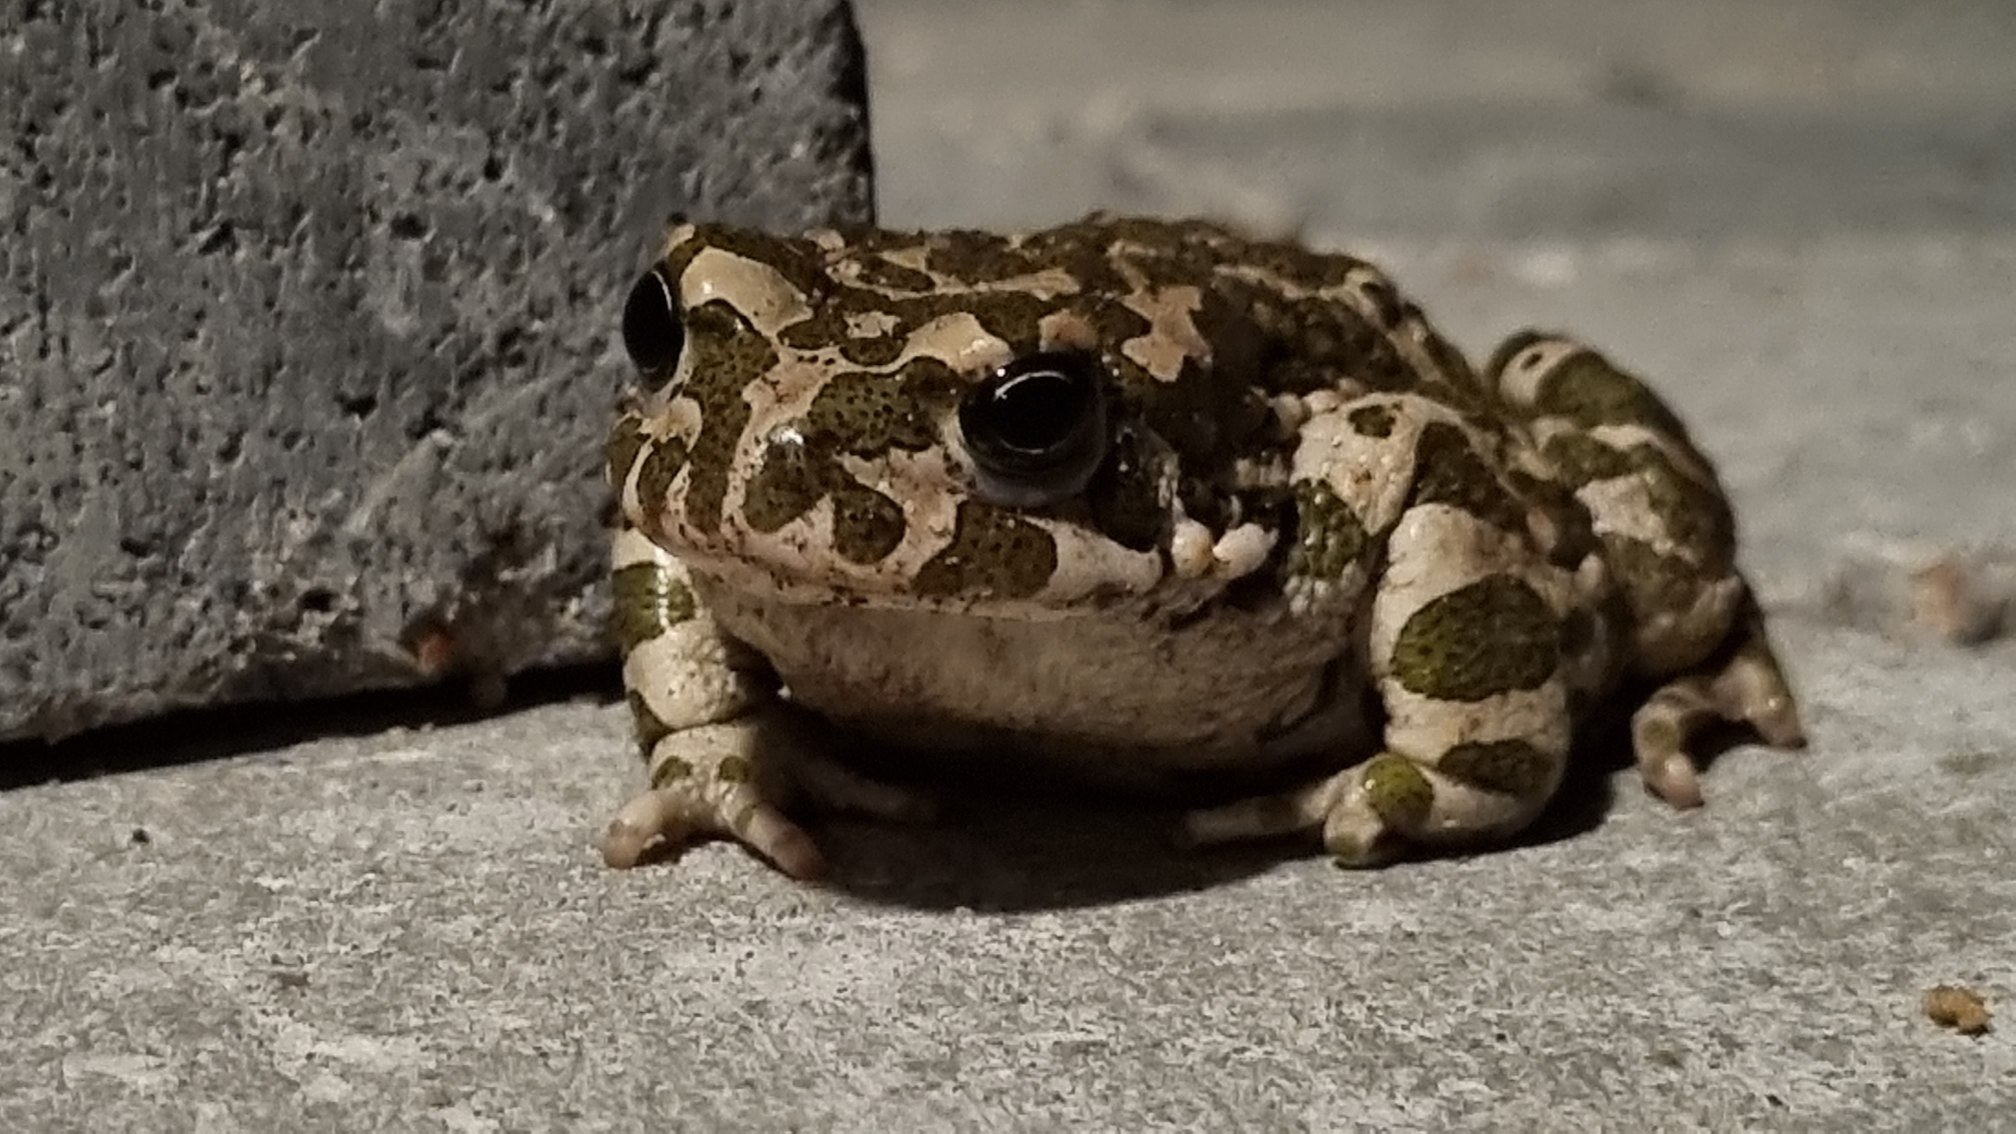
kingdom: Animalia
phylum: Chordata
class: Amphibia
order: Anura
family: Bufonidae
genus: Bufotes
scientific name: Bufotes viridis
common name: Grønbroget tudse
